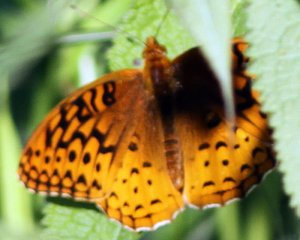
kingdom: Animalia
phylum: Arthropoda
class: Insecta
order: Lepidoptera
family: Nymphalidae
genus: Speyeria
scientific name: Speyeria cybele
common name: Great Spangled Fritillary
